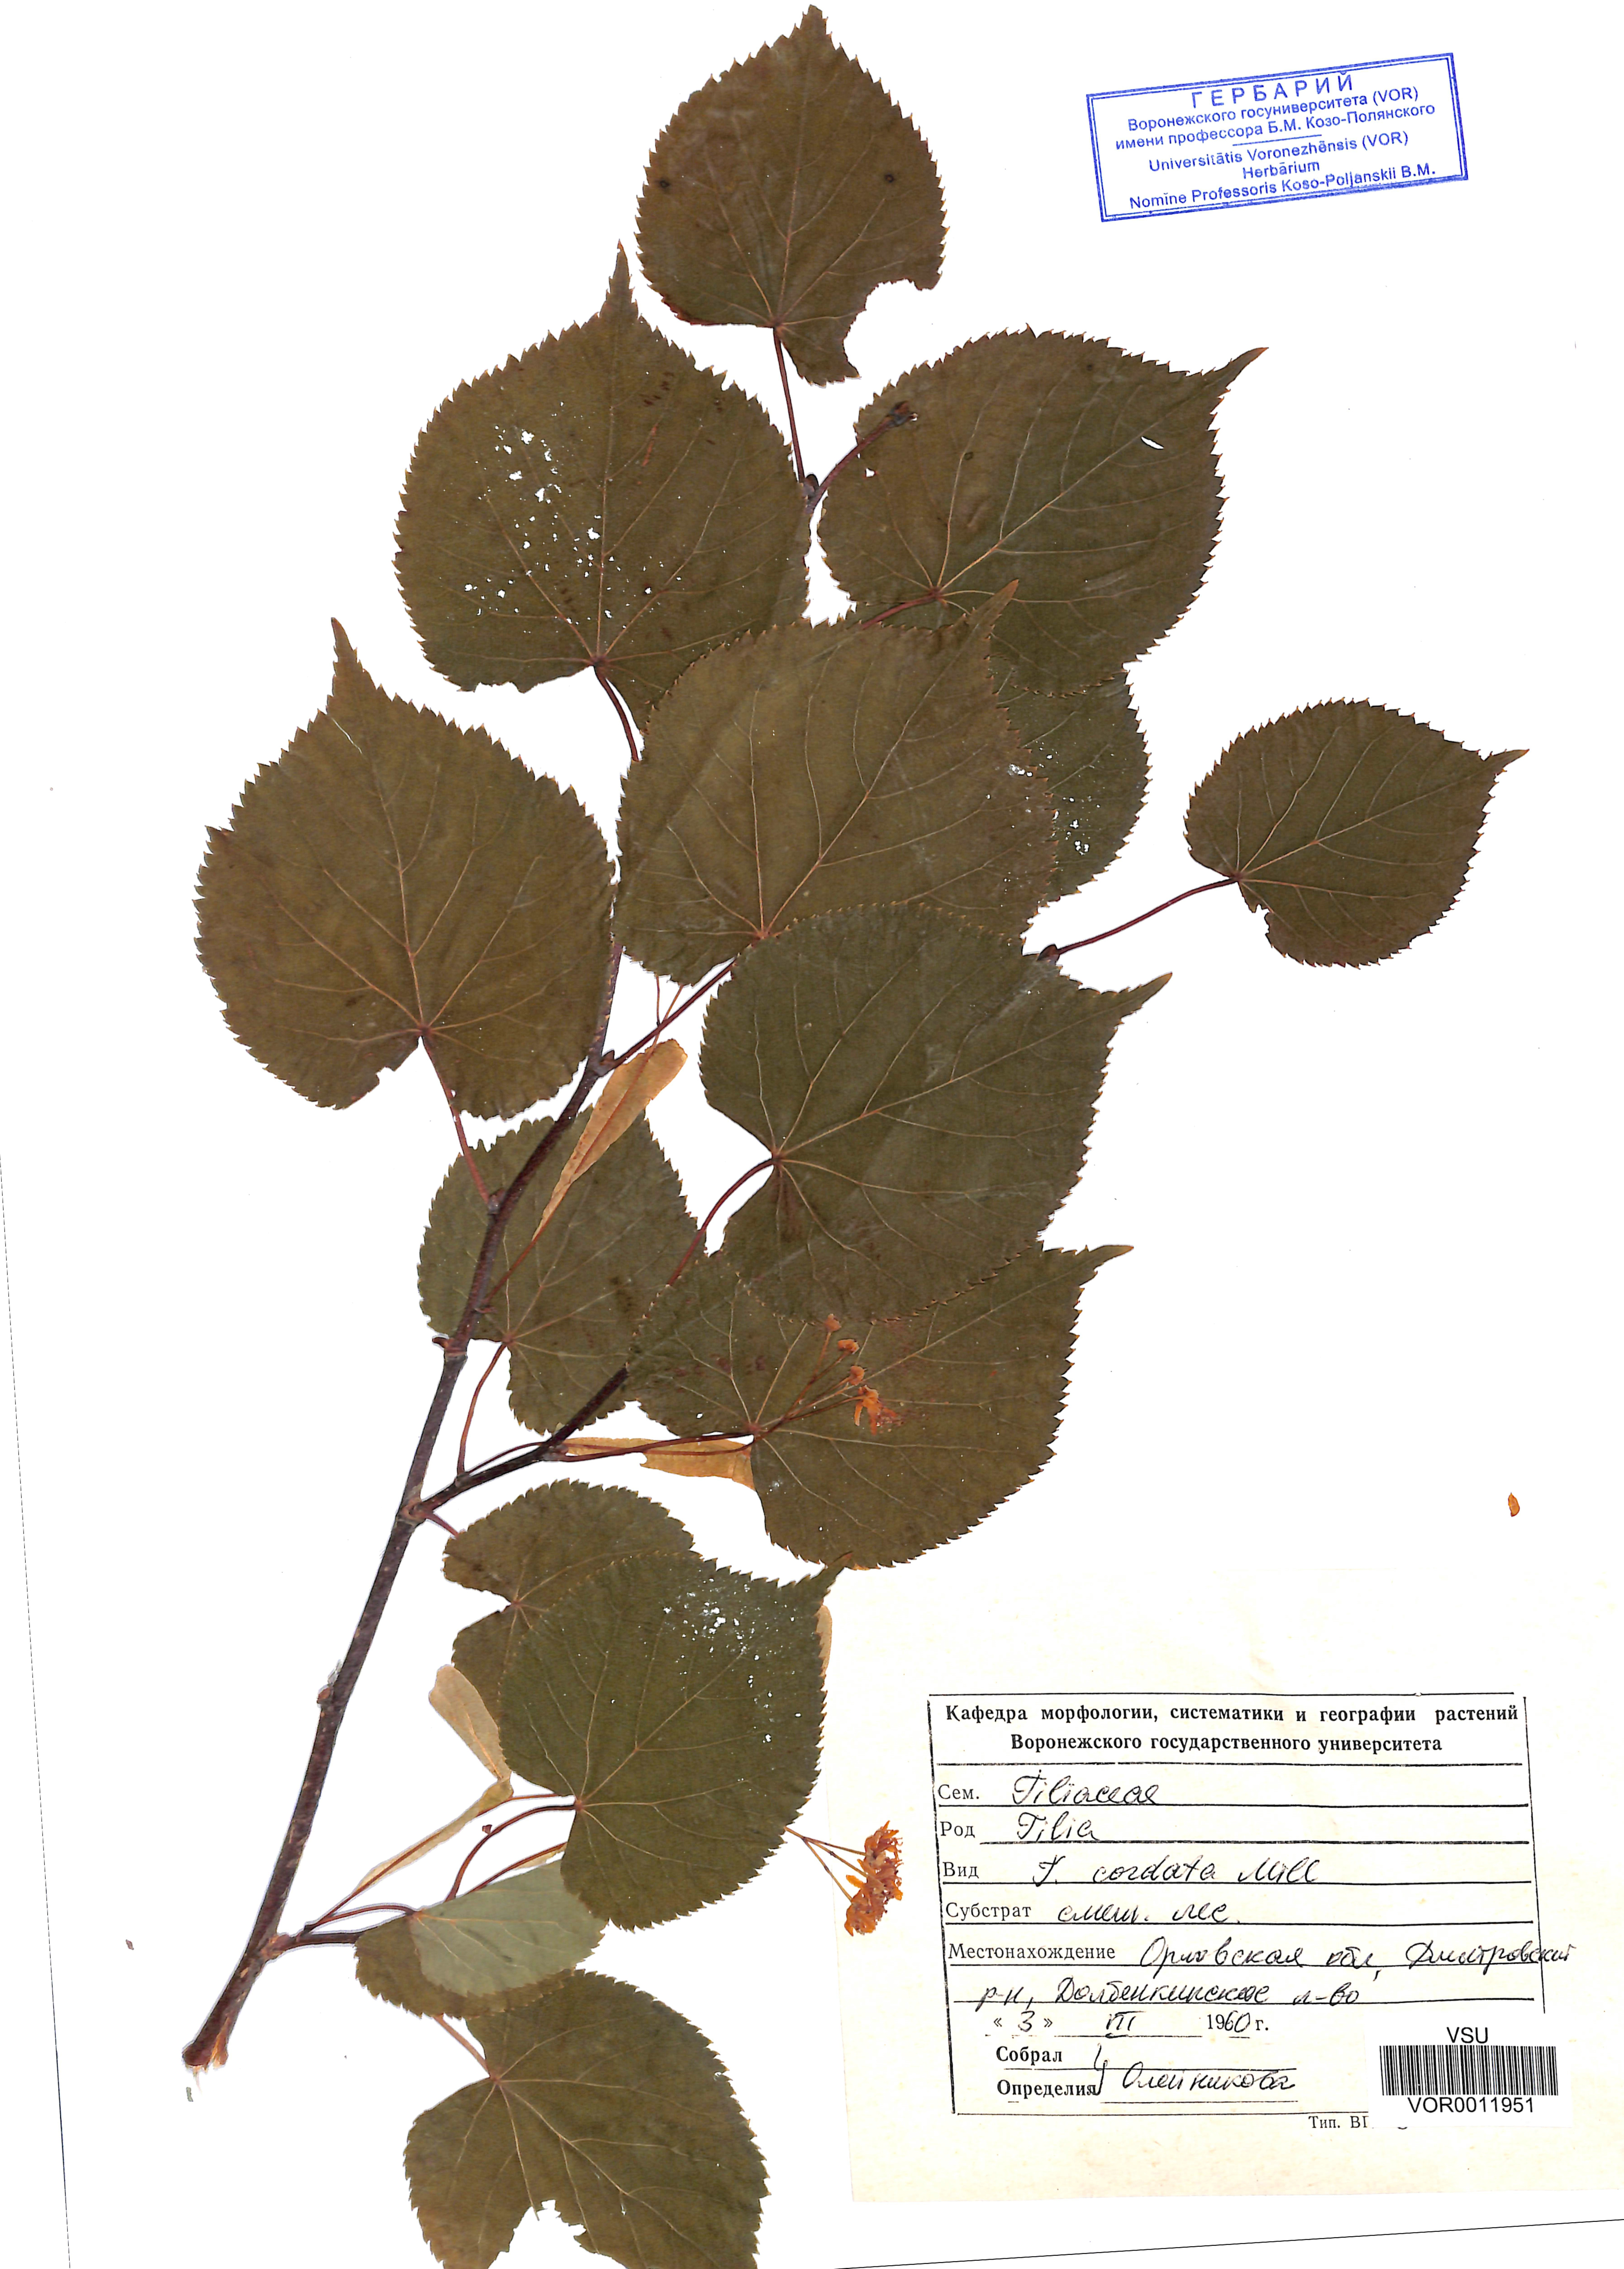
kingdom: Plantae
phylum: Tracheophyta
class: Magnoliopsida
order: Malvales
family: Malvaceae
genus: Tilia
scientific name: Tilia cordata
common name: Small-leaved lime
